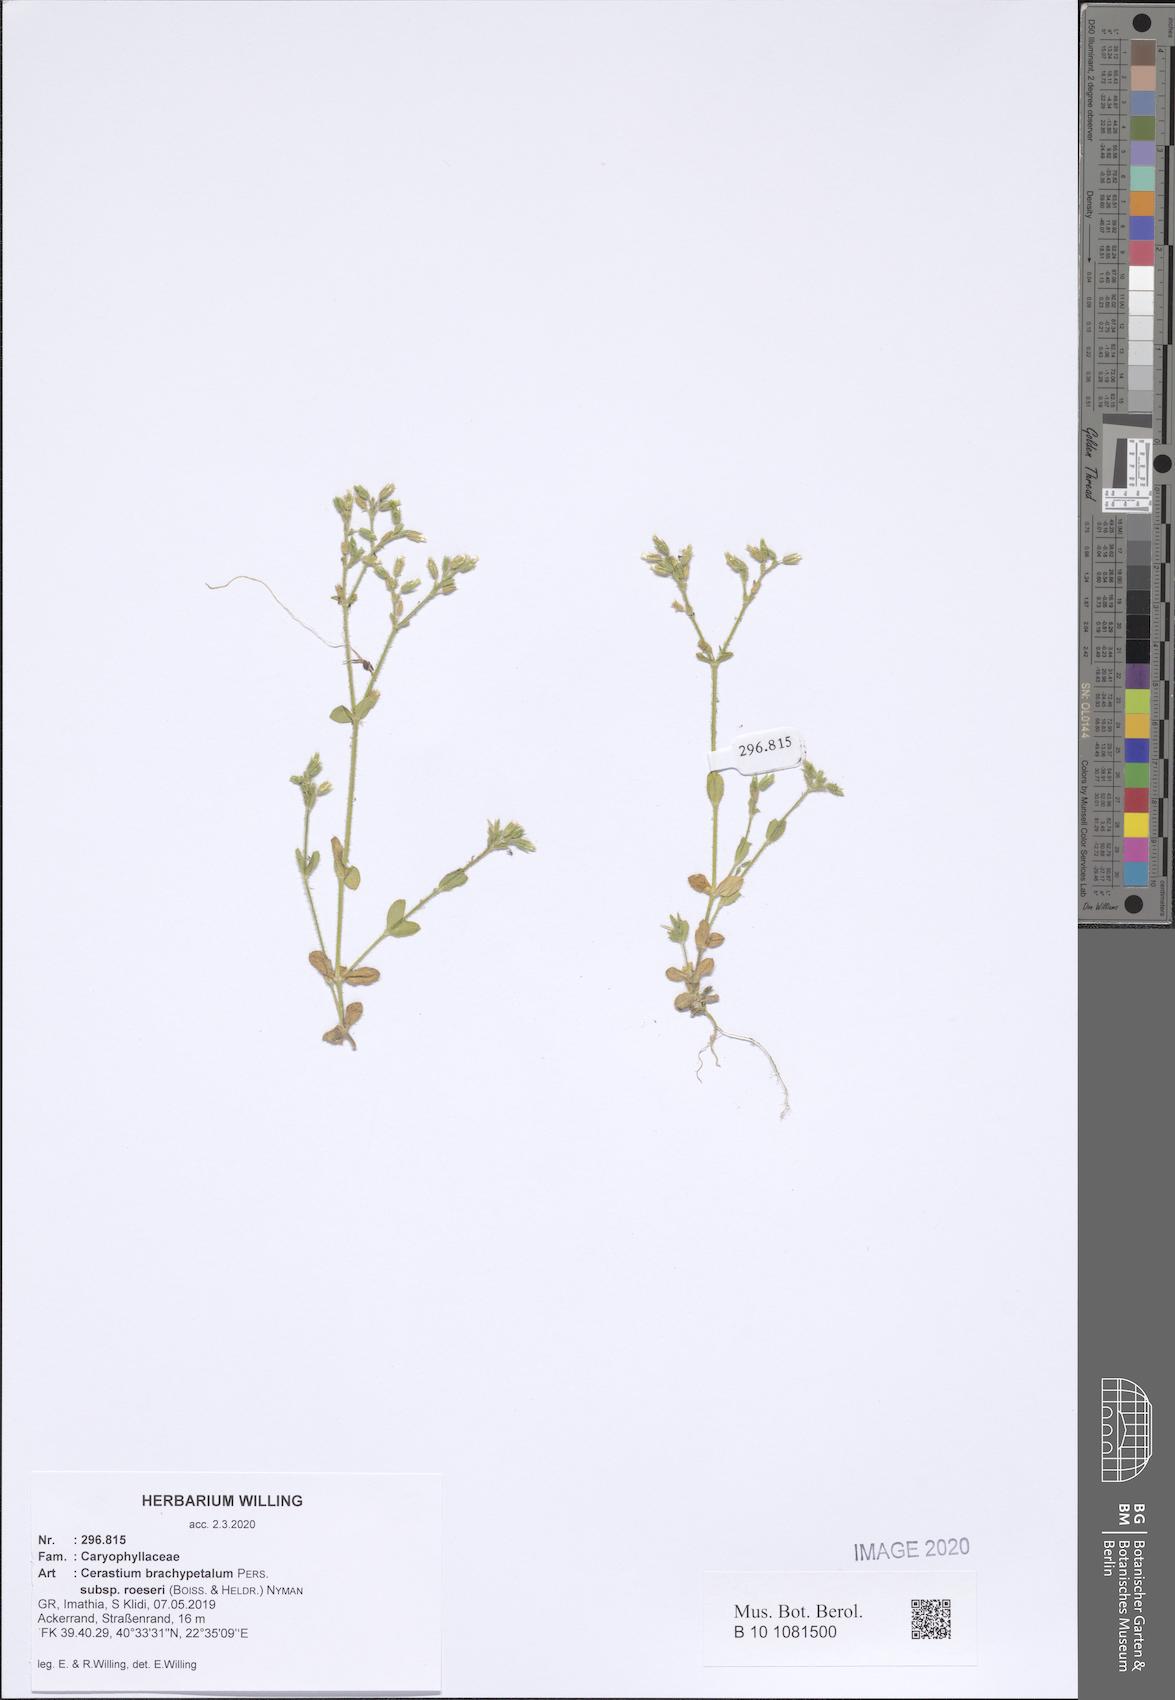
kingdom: Plantae
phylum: Tracheophyta
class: Magnoliopsida
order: Caryophyllales
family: Caryophyllaceae
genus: Cerastium
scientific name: Cerastium brachypetalum
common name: Grey mouse-ear
